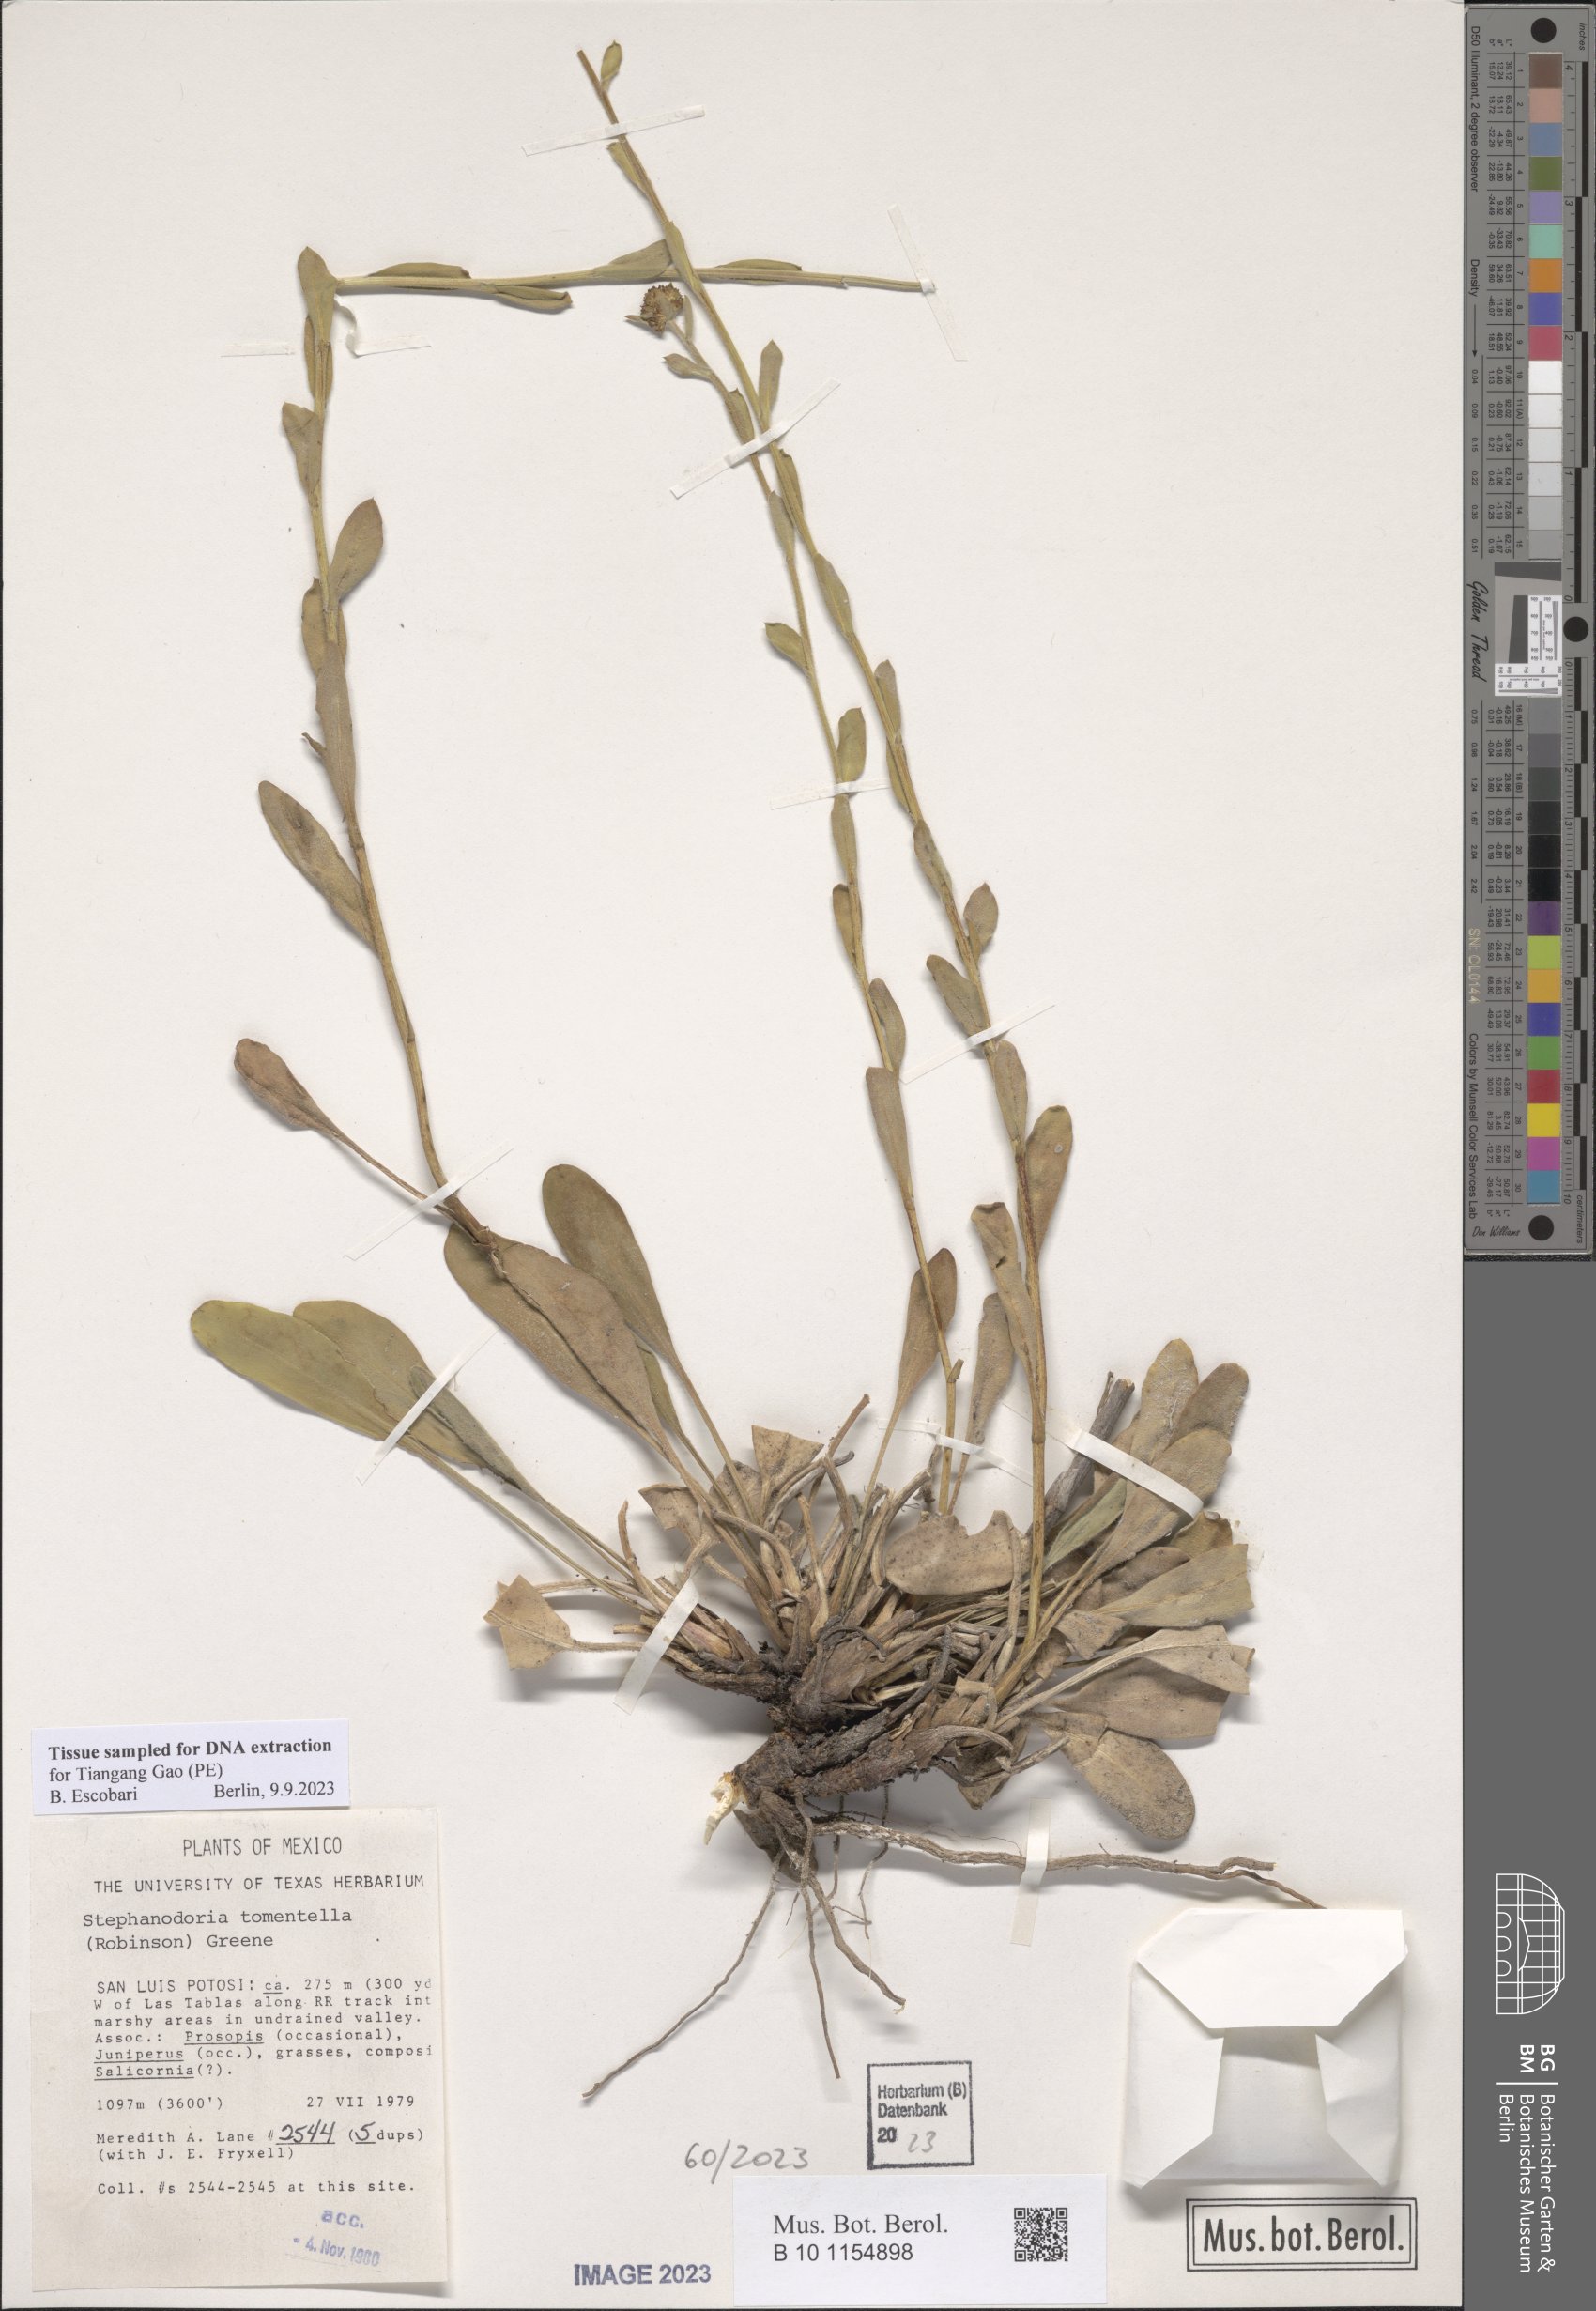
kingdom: Plantae
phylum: Tracheophyta
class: Magnoliopsida
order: Asterales
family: Asteraceae
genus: Stephanodoria
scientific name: Stephanodoria tomentella
